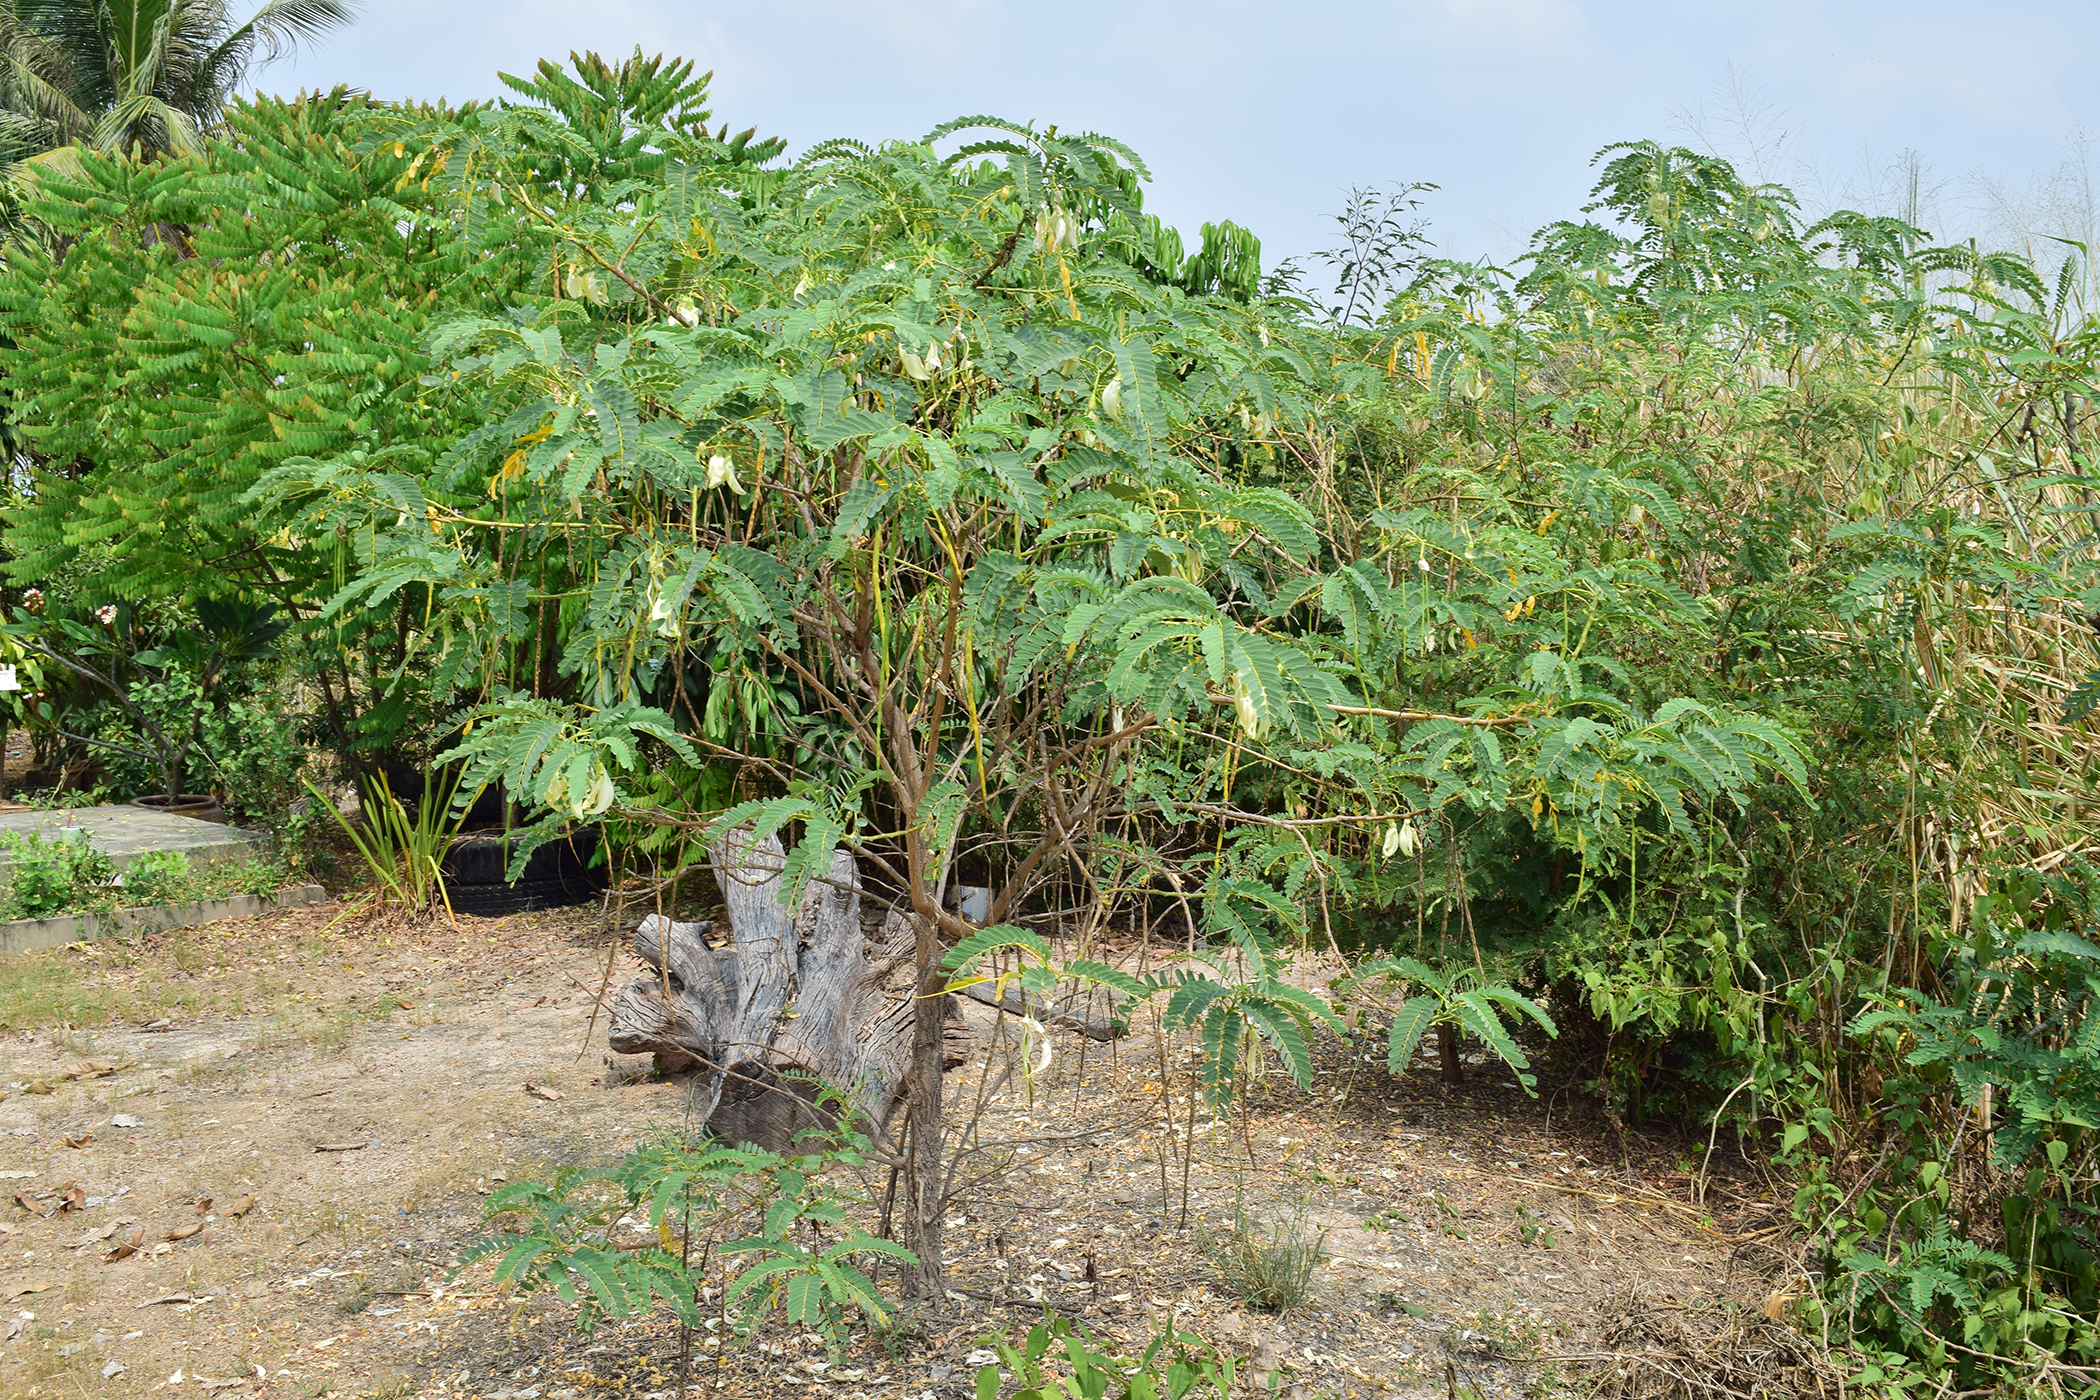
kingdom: Plantae
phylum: Tracheophyta
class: Magnoliopsida
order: Fabales
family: Fabaceae
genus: Sesbania
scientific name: Sesbania grandiflora
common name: Vegetable-hummingbird
